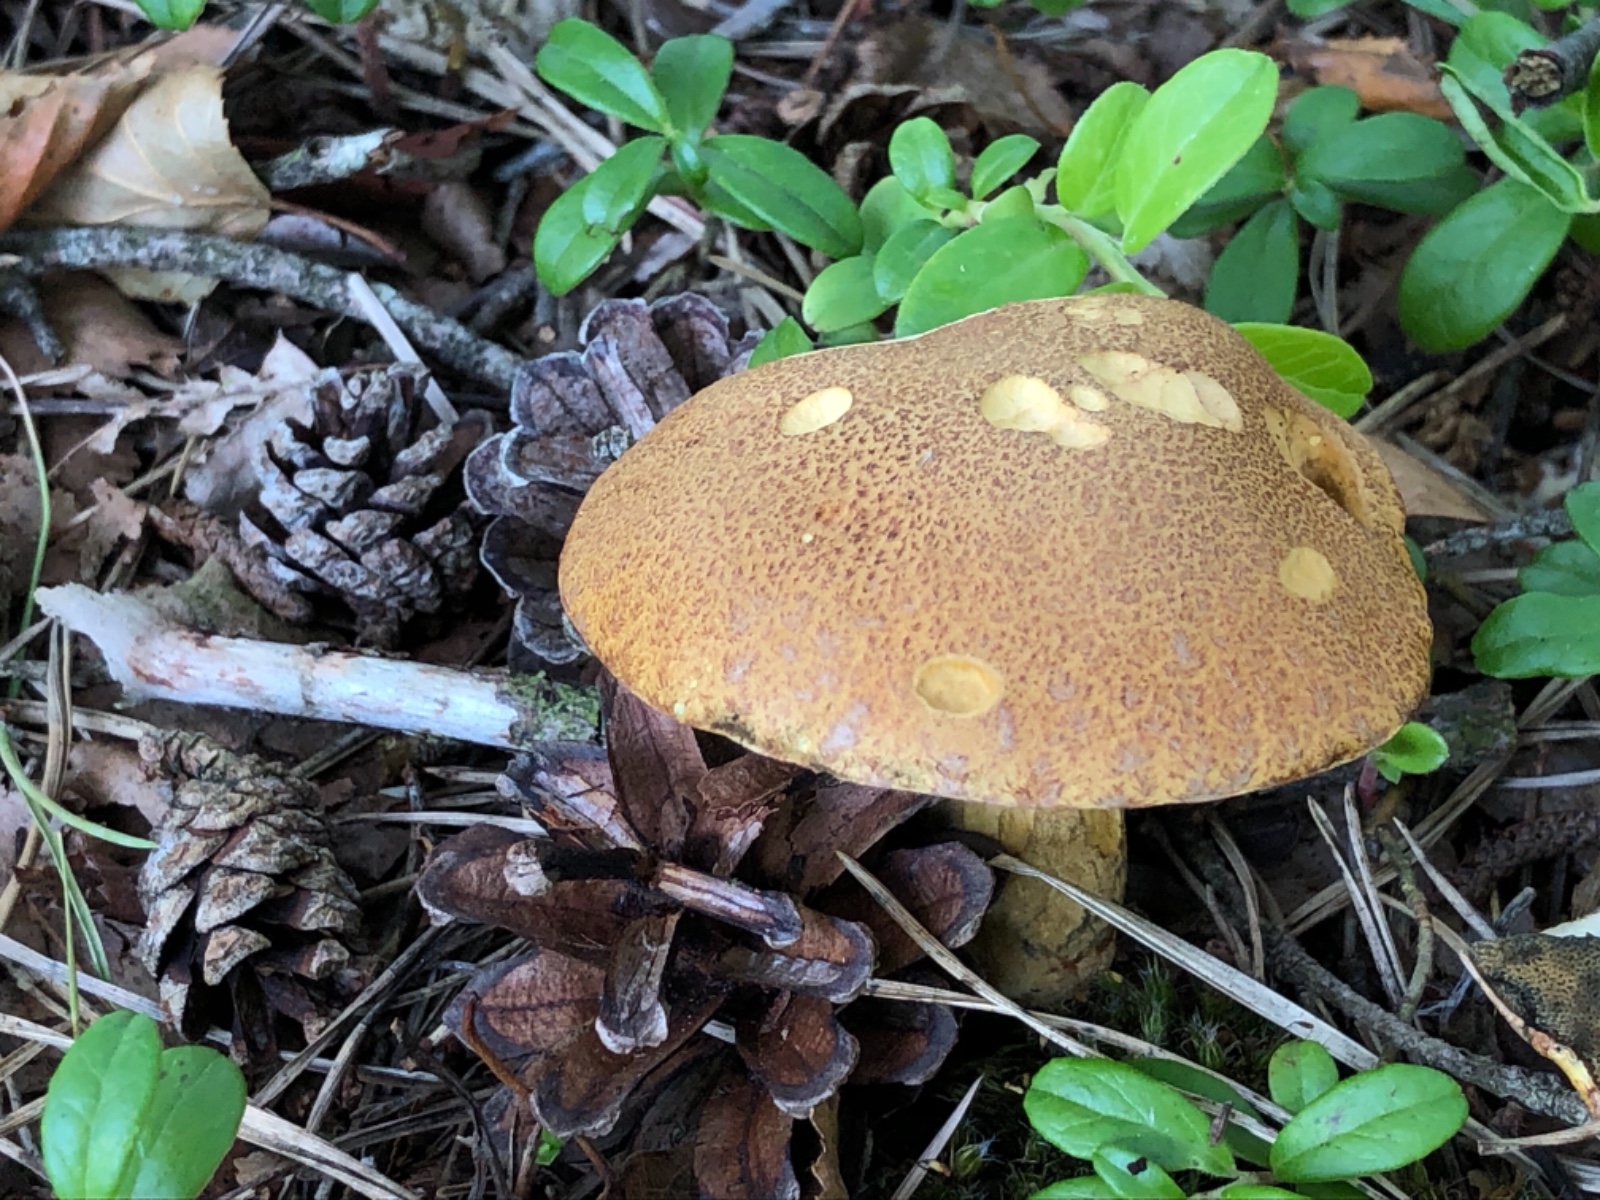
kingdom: Fungi
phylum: Basidiomycota
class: Agaricomycetes
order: Boletales
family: Suillaceae
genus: Suillus
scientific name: Suillus variegatus
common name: broget slimrørhat
